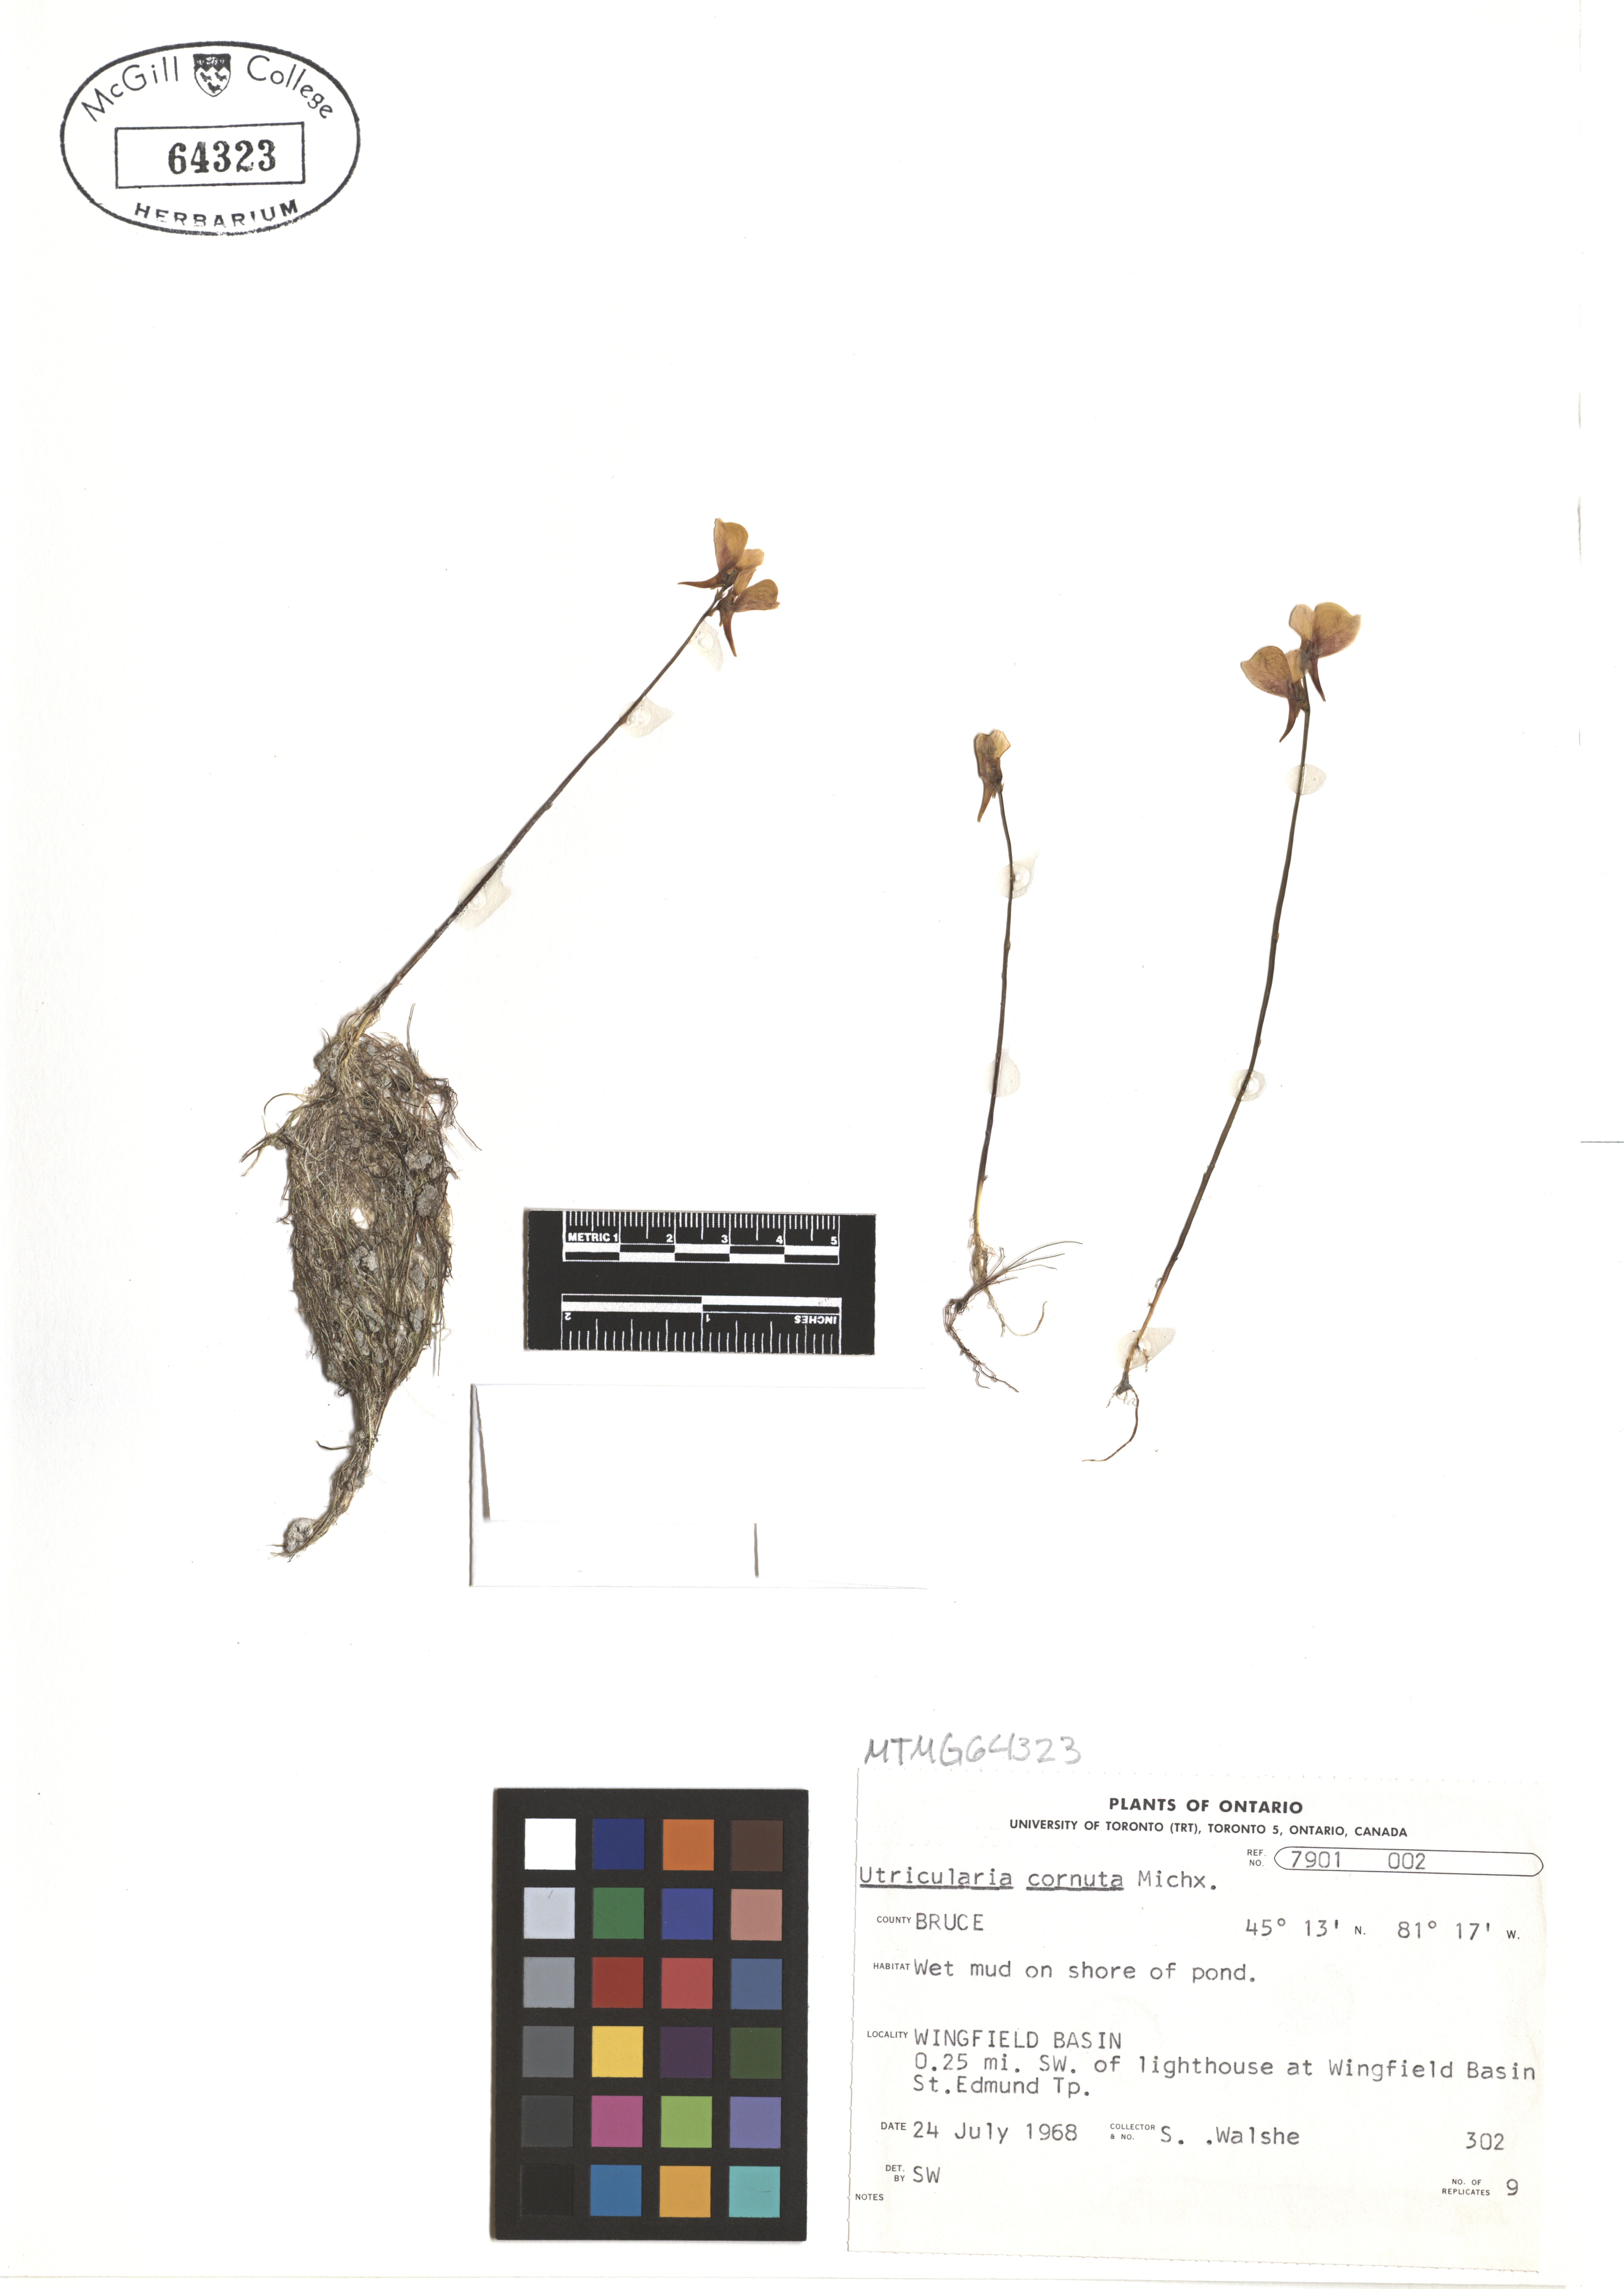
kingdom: Plantae
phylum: Tracheophyta
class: Magnoliopsida
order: Lamiales
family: Lentibulariaceae
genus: Utricularia
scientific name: Utricularia cornuta
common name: Horned bladderwort
